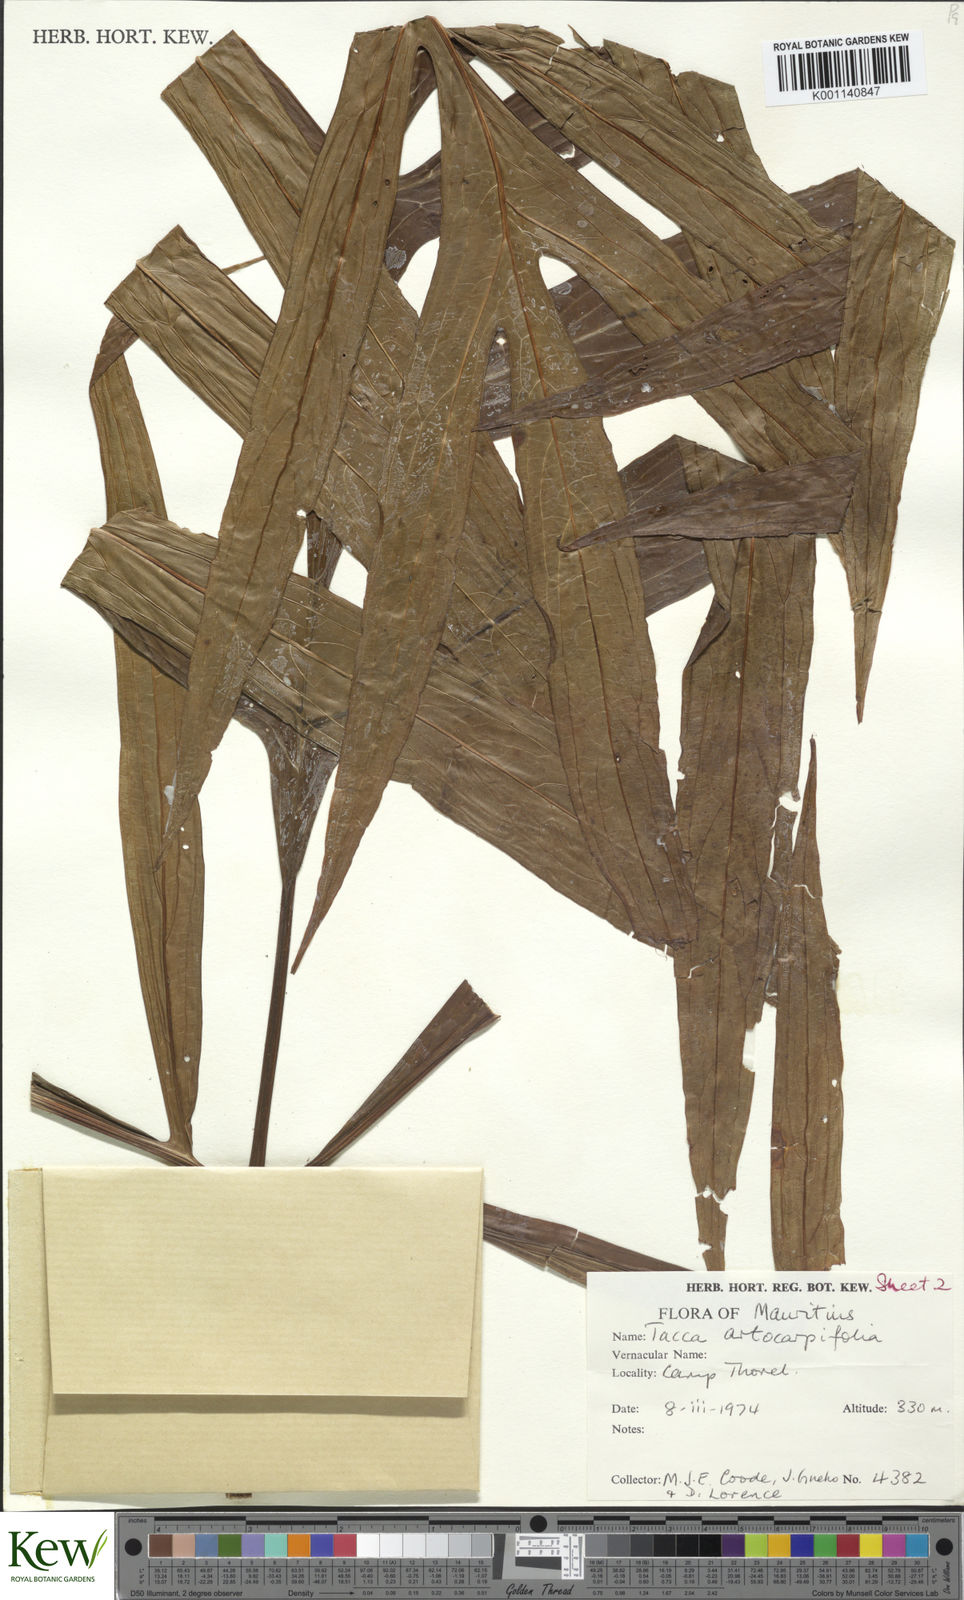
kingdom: Plantae
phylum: Tracheophyta
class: Liliopsida
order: Dioscoreales
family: Dioscoreaceae
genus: Tacca
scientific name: Tacca leontopetaloides
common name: Arrowroot
